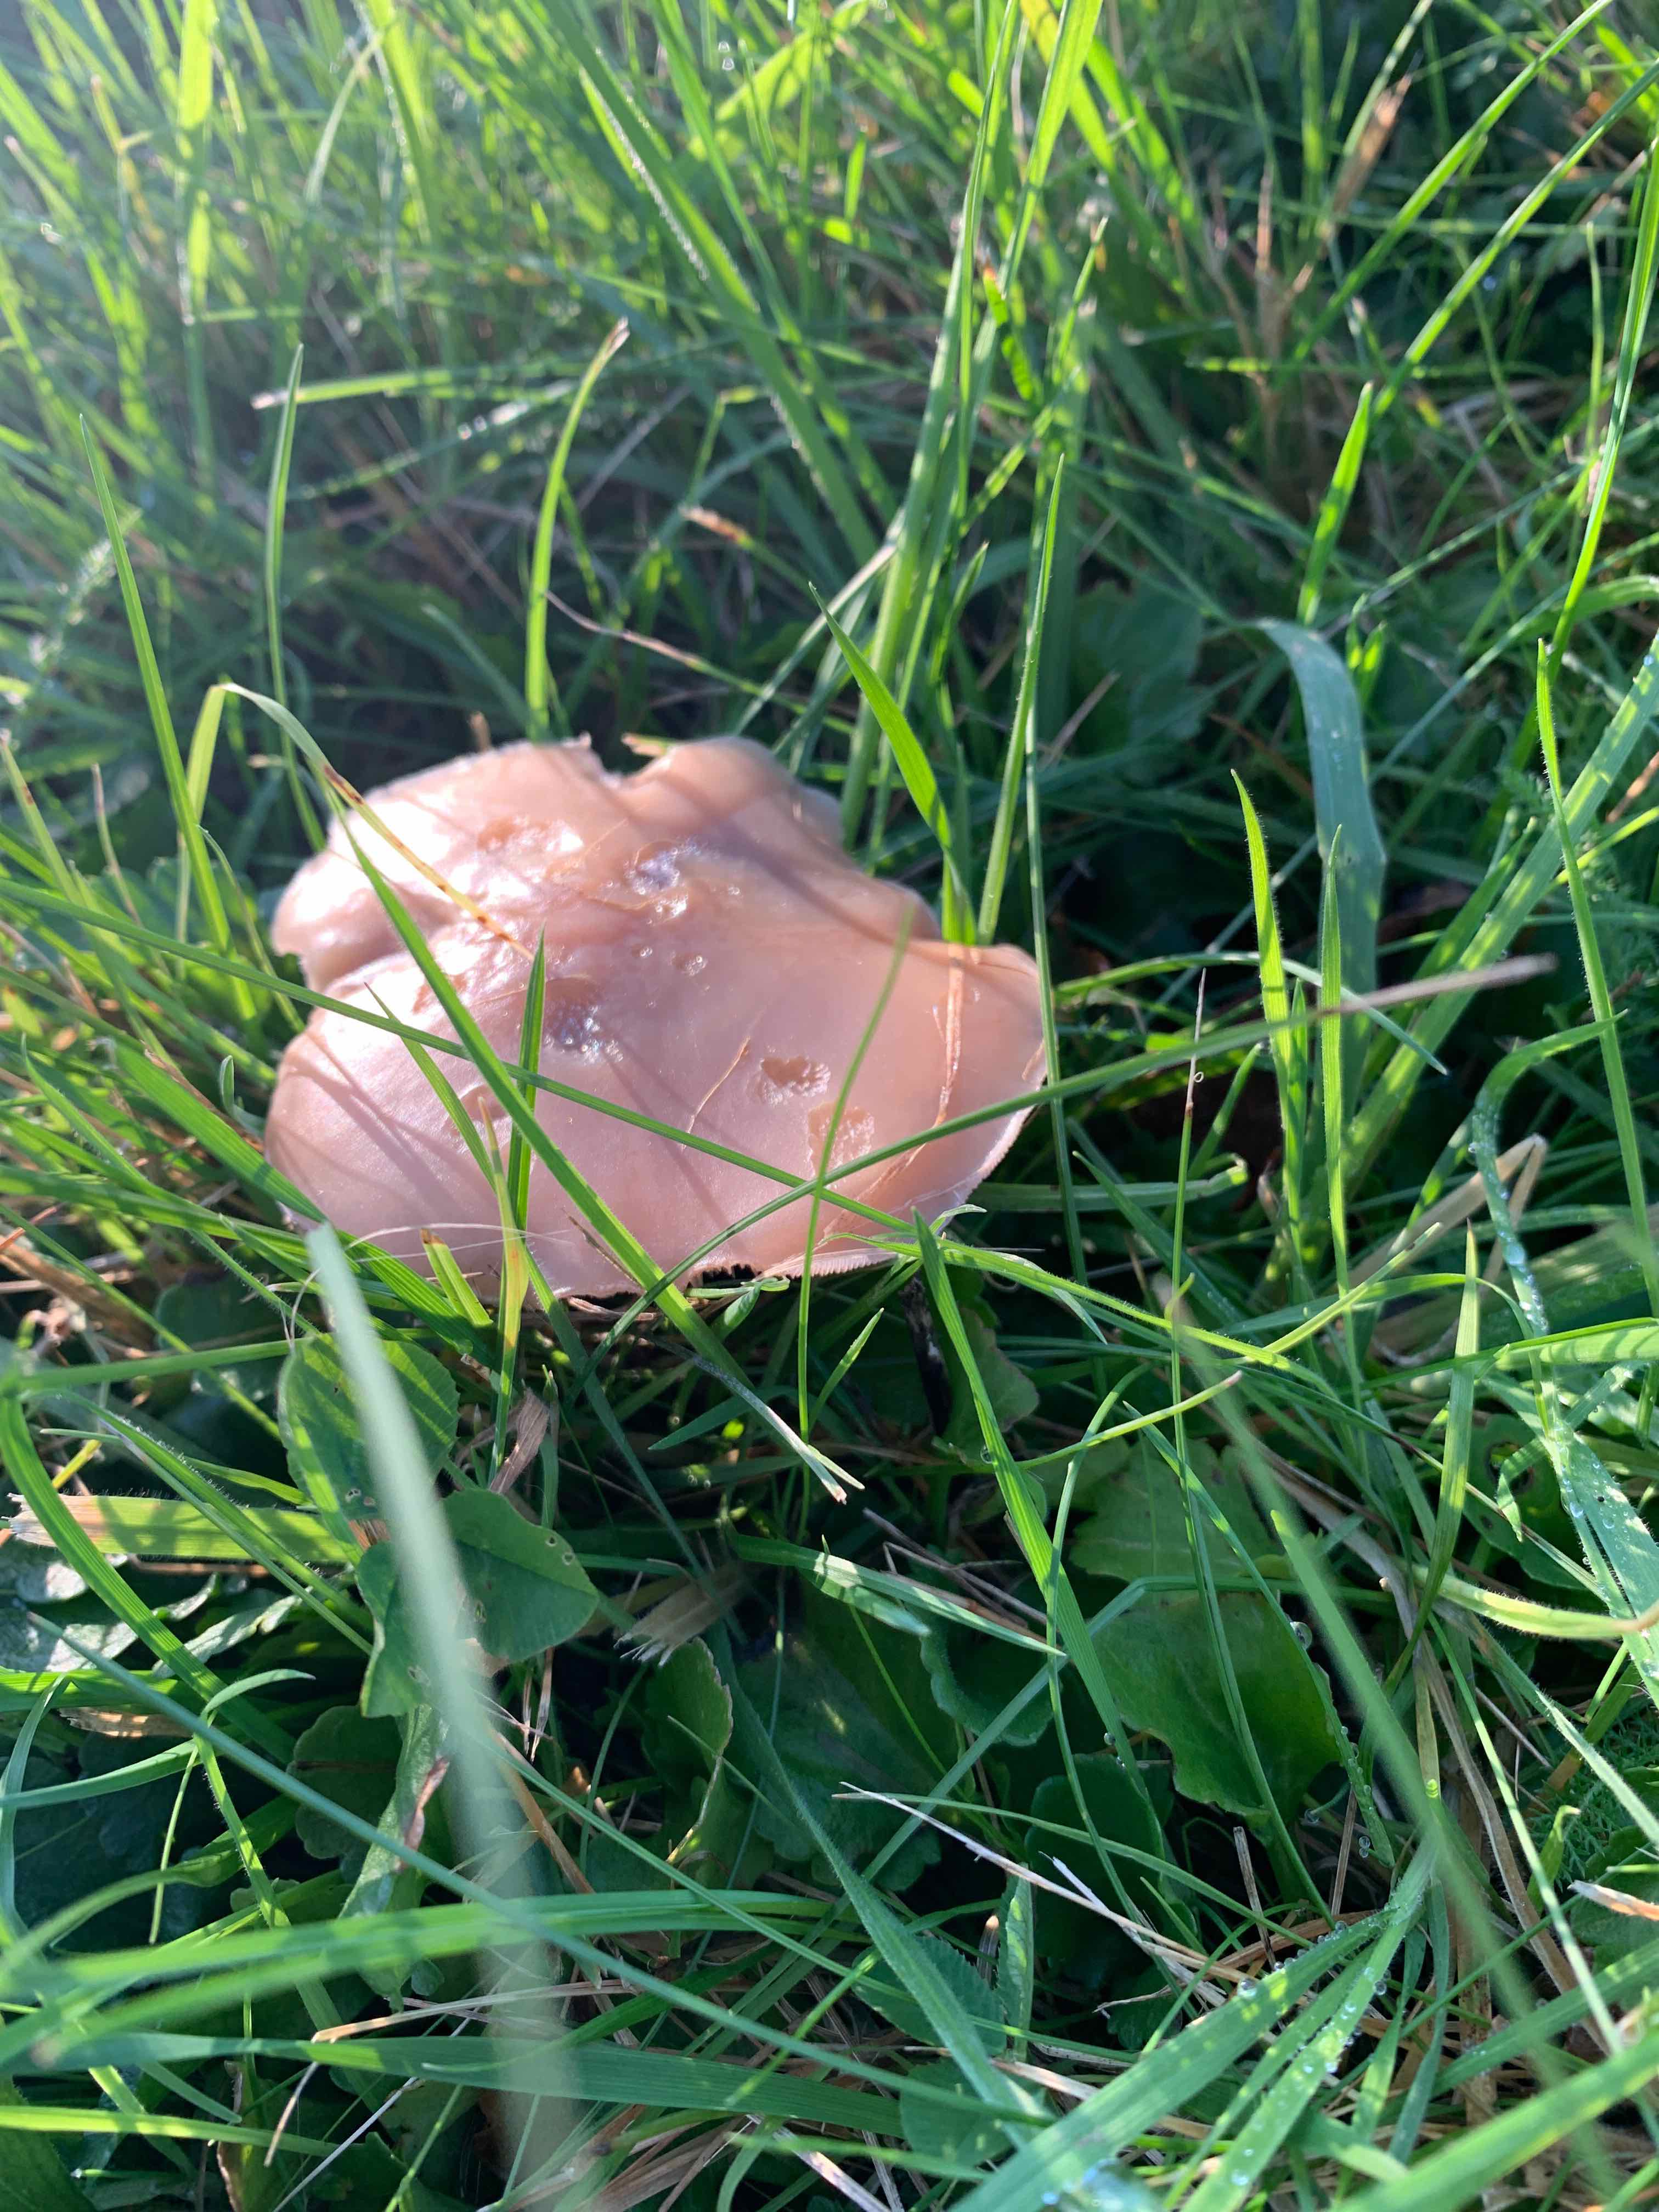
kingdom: Fungi
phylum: Basidiomycota
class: Agaricomycetes
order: Agaricales
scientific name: Agaricales
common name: champignonordenen
